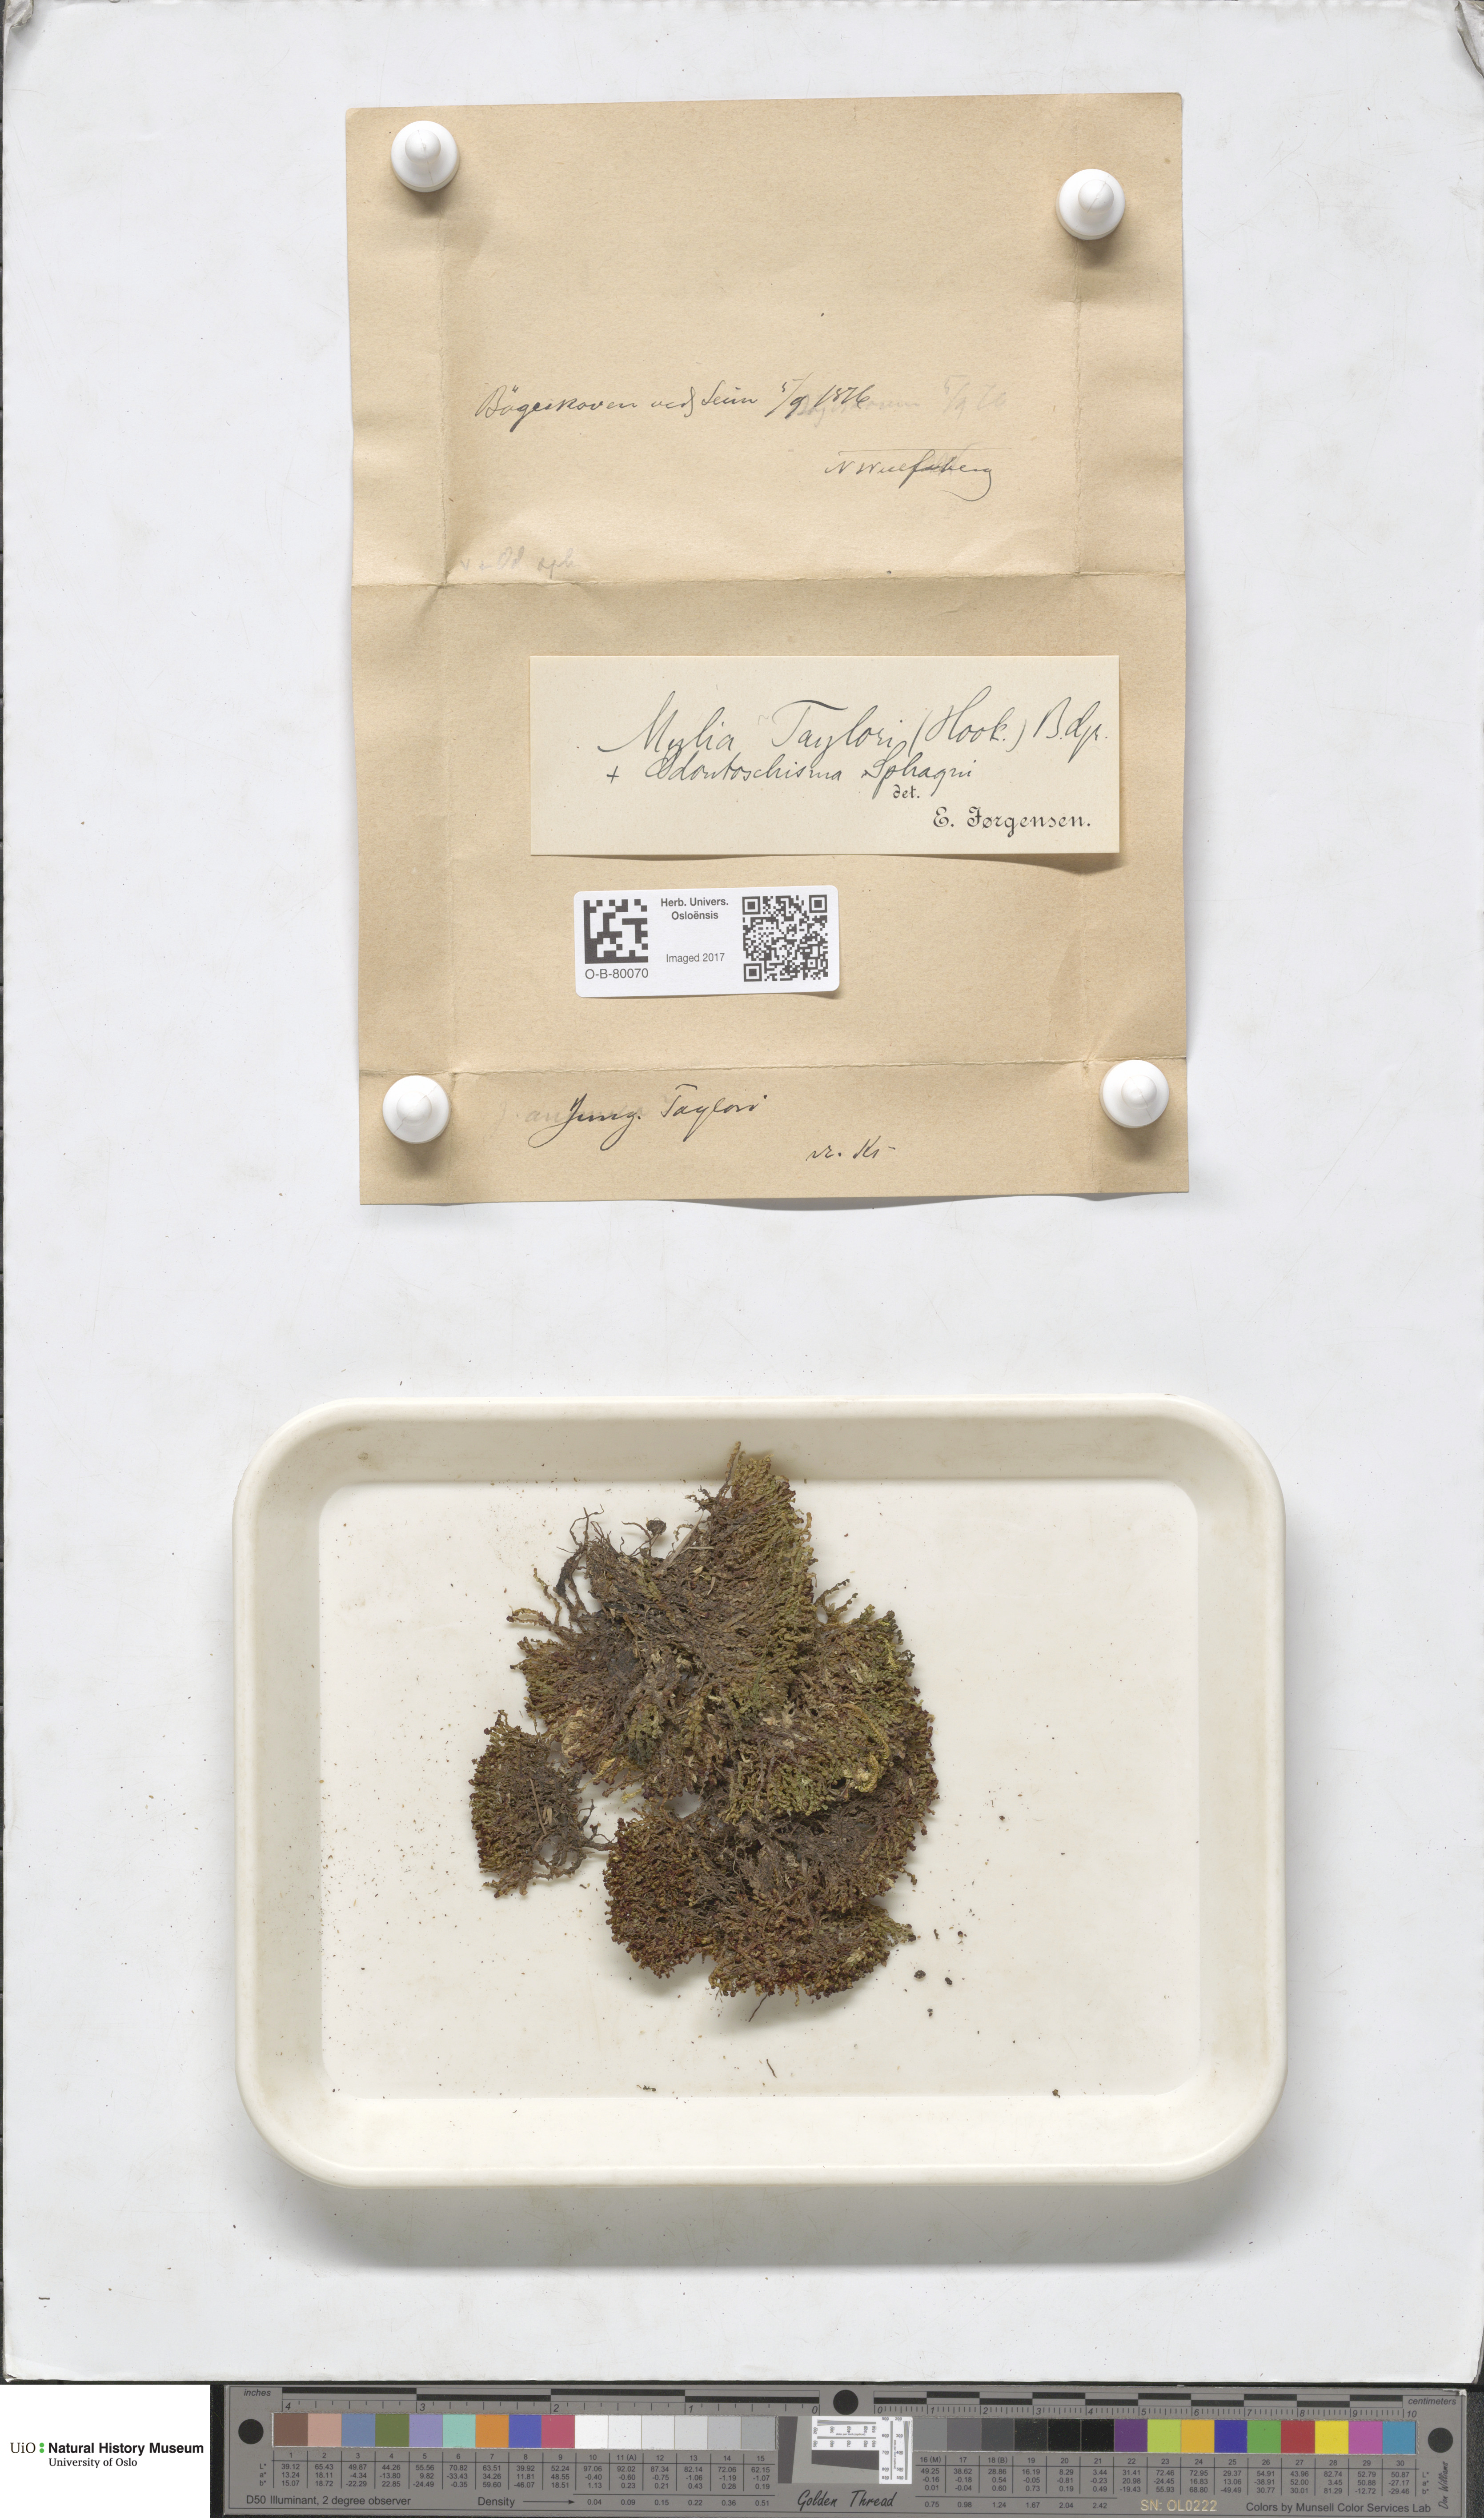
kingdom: Plantae
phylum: Marchantiophyta
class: Jungermanniopsida
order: Jungermanniales
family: Myliaceae
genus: Mylia
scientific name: Mylia taylorii
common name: Taylor s flapwort
